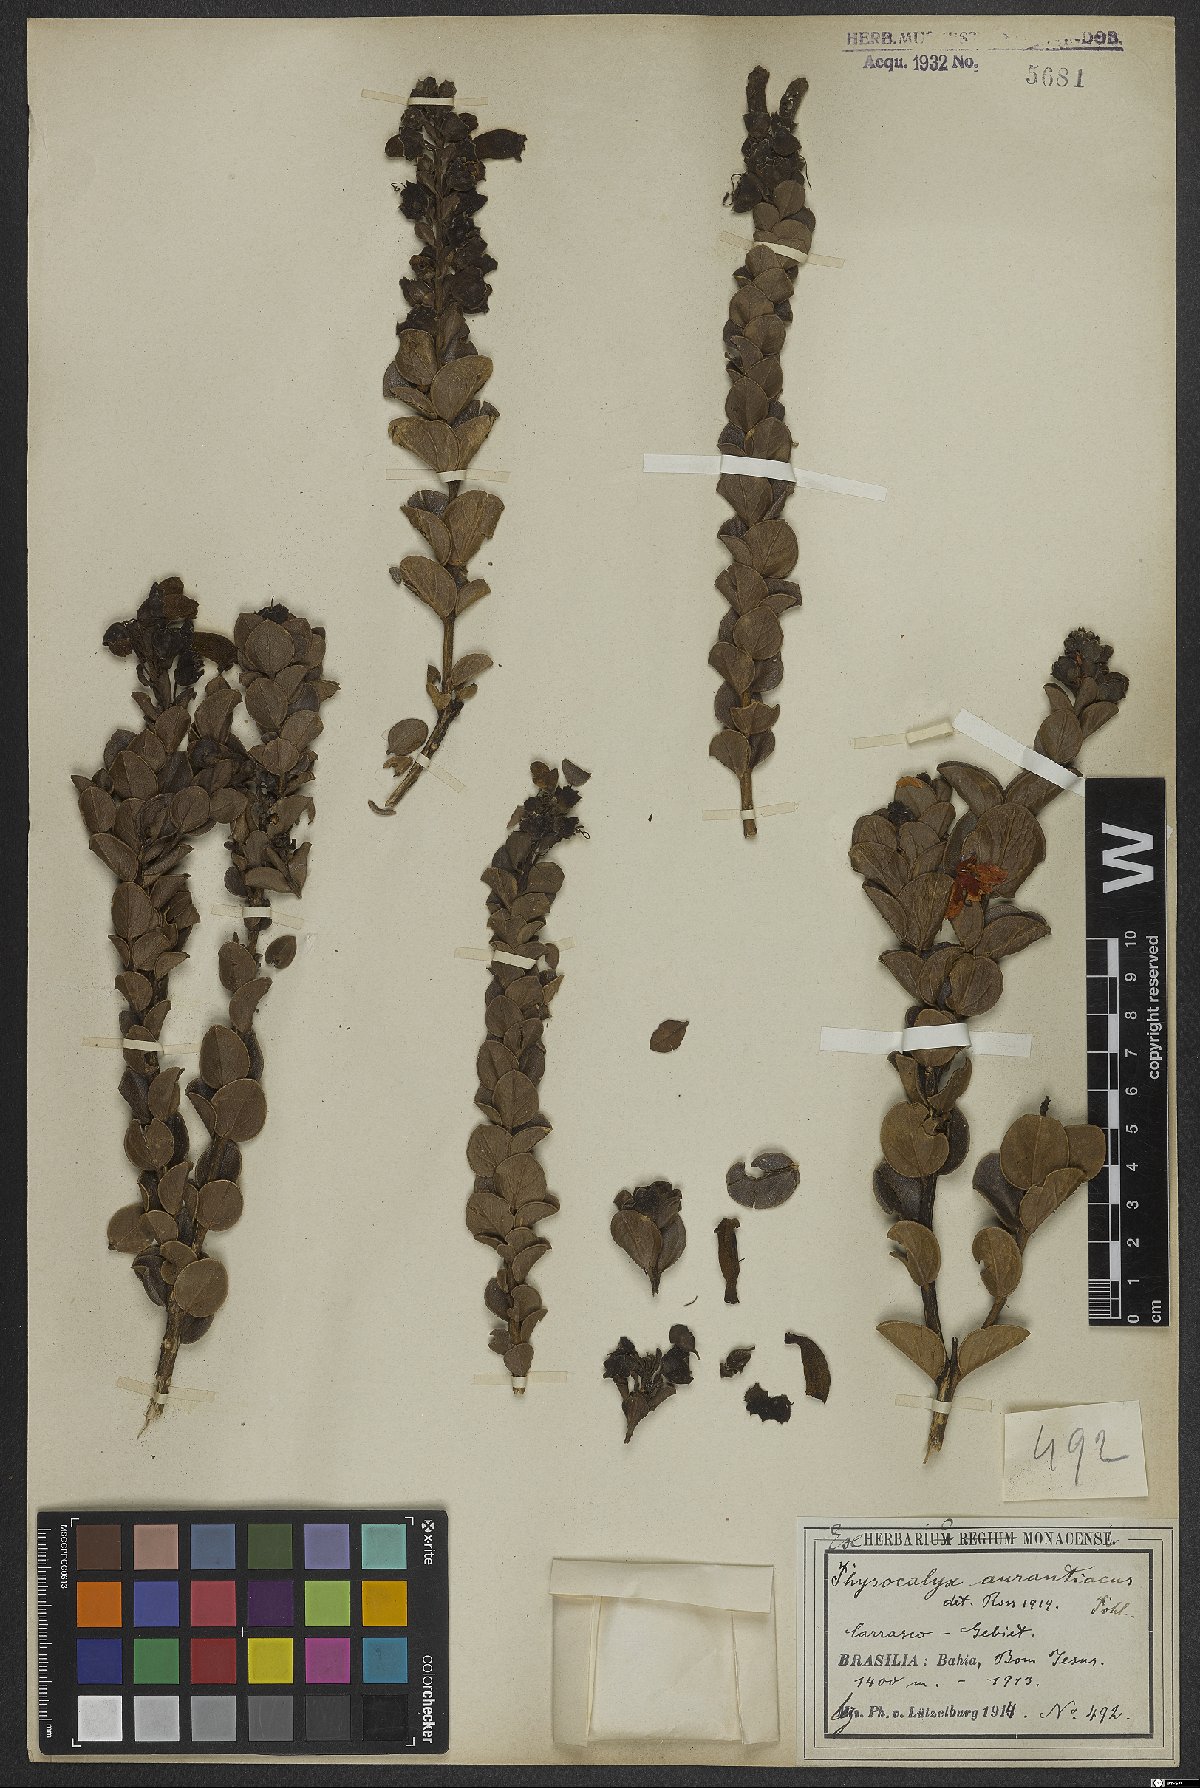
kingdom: Plantae
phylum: Tracheophyta
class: Magnoliopsida
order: Lamiales
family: Orobanchaceae
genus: Physocalyx
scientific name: Physocalyx aurantiacus
